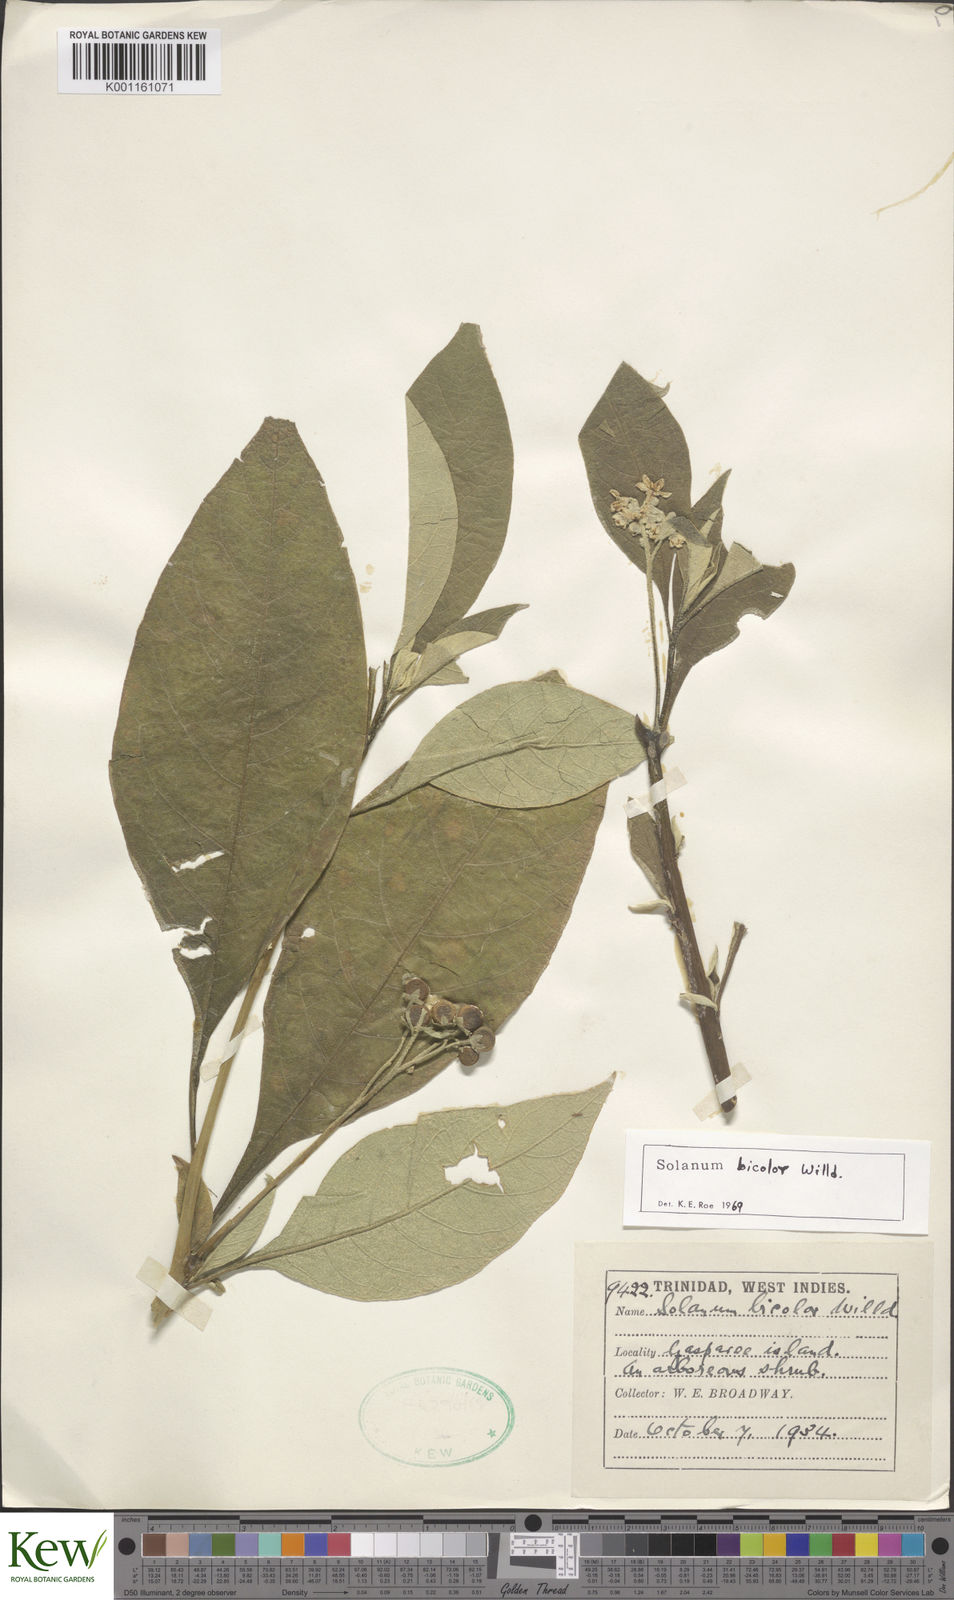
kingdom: Plantae
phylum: Tracheophyta
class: Magnoliopsida
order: Solanales
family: Solanaceae
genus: Solanum
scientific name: Solanum bicolor
